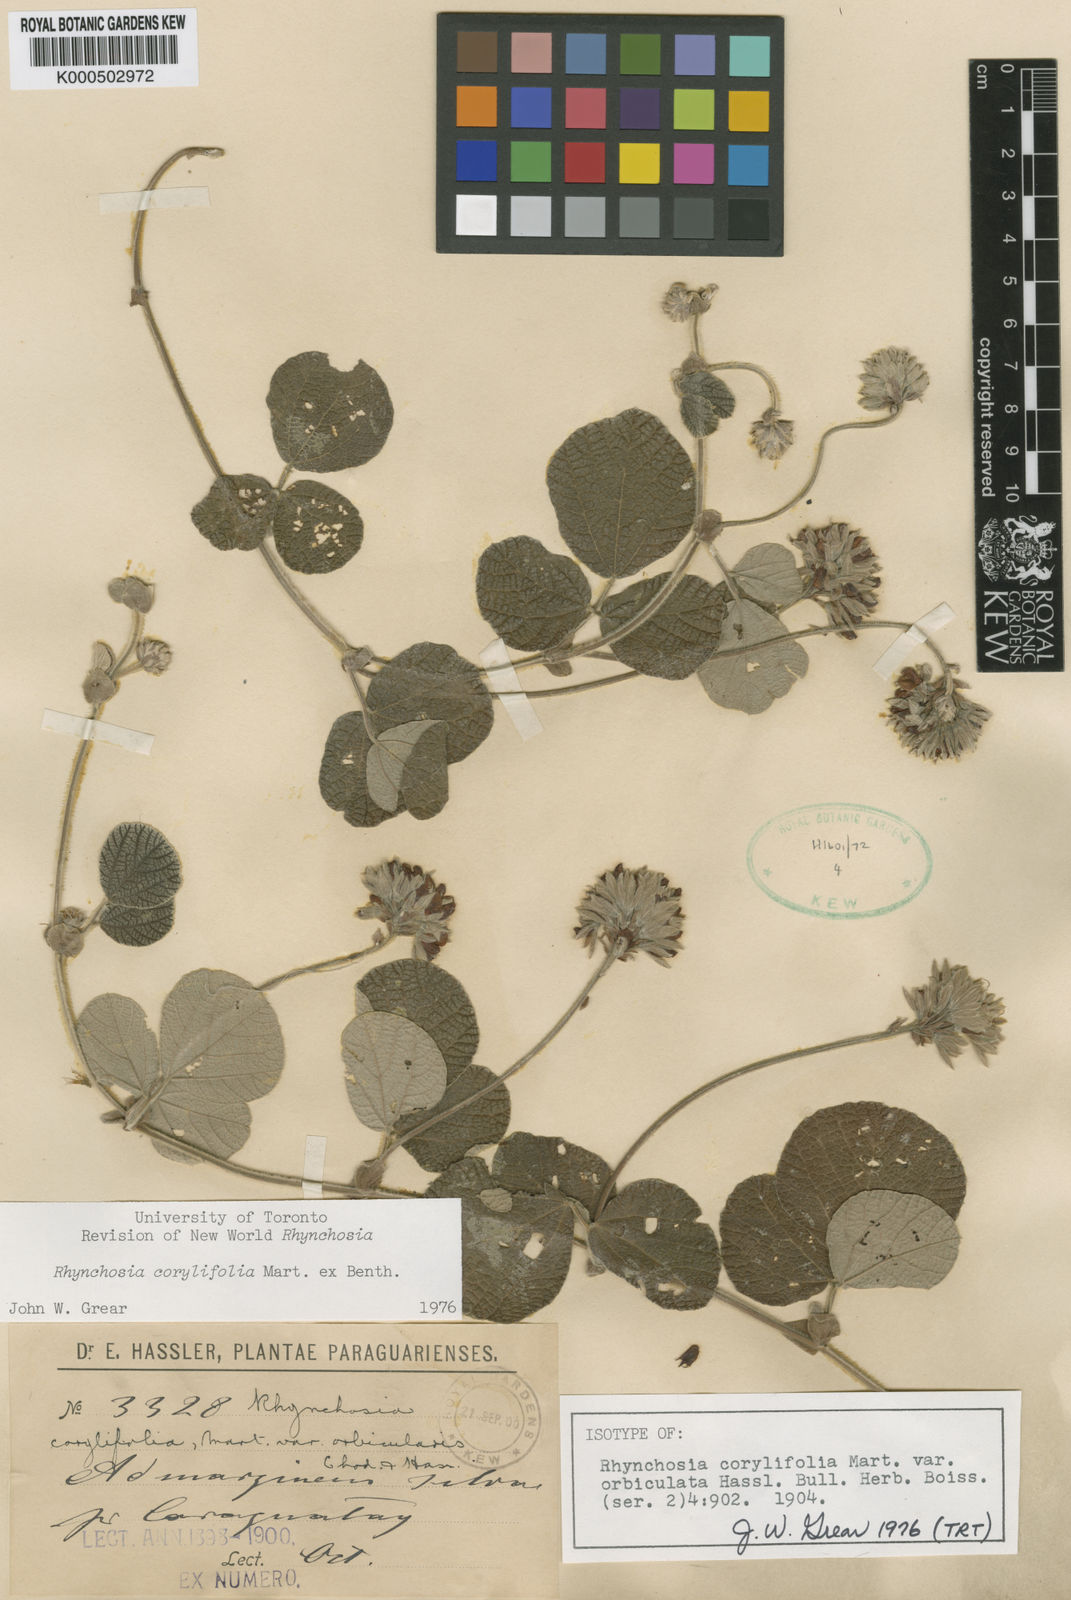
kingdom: Plantae
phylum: Tracheophyta
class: Magnoliopsida
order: Fabales
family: Fabaceae
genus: Rhynchosia
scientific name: Rhynchosia corylifolia
